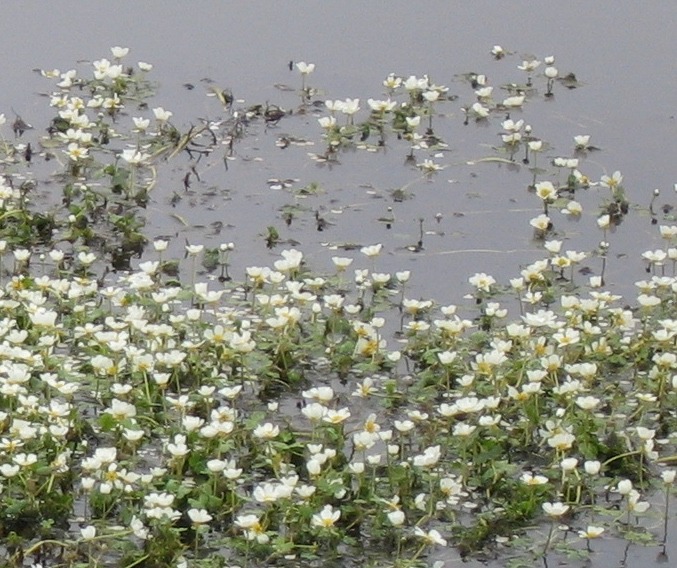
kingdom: Plantae
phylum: Tracheophyta
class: Magnoliopsida
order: Ranunculales
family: Ranunculaceae
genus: Ranunculus
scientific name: Ranunculus
